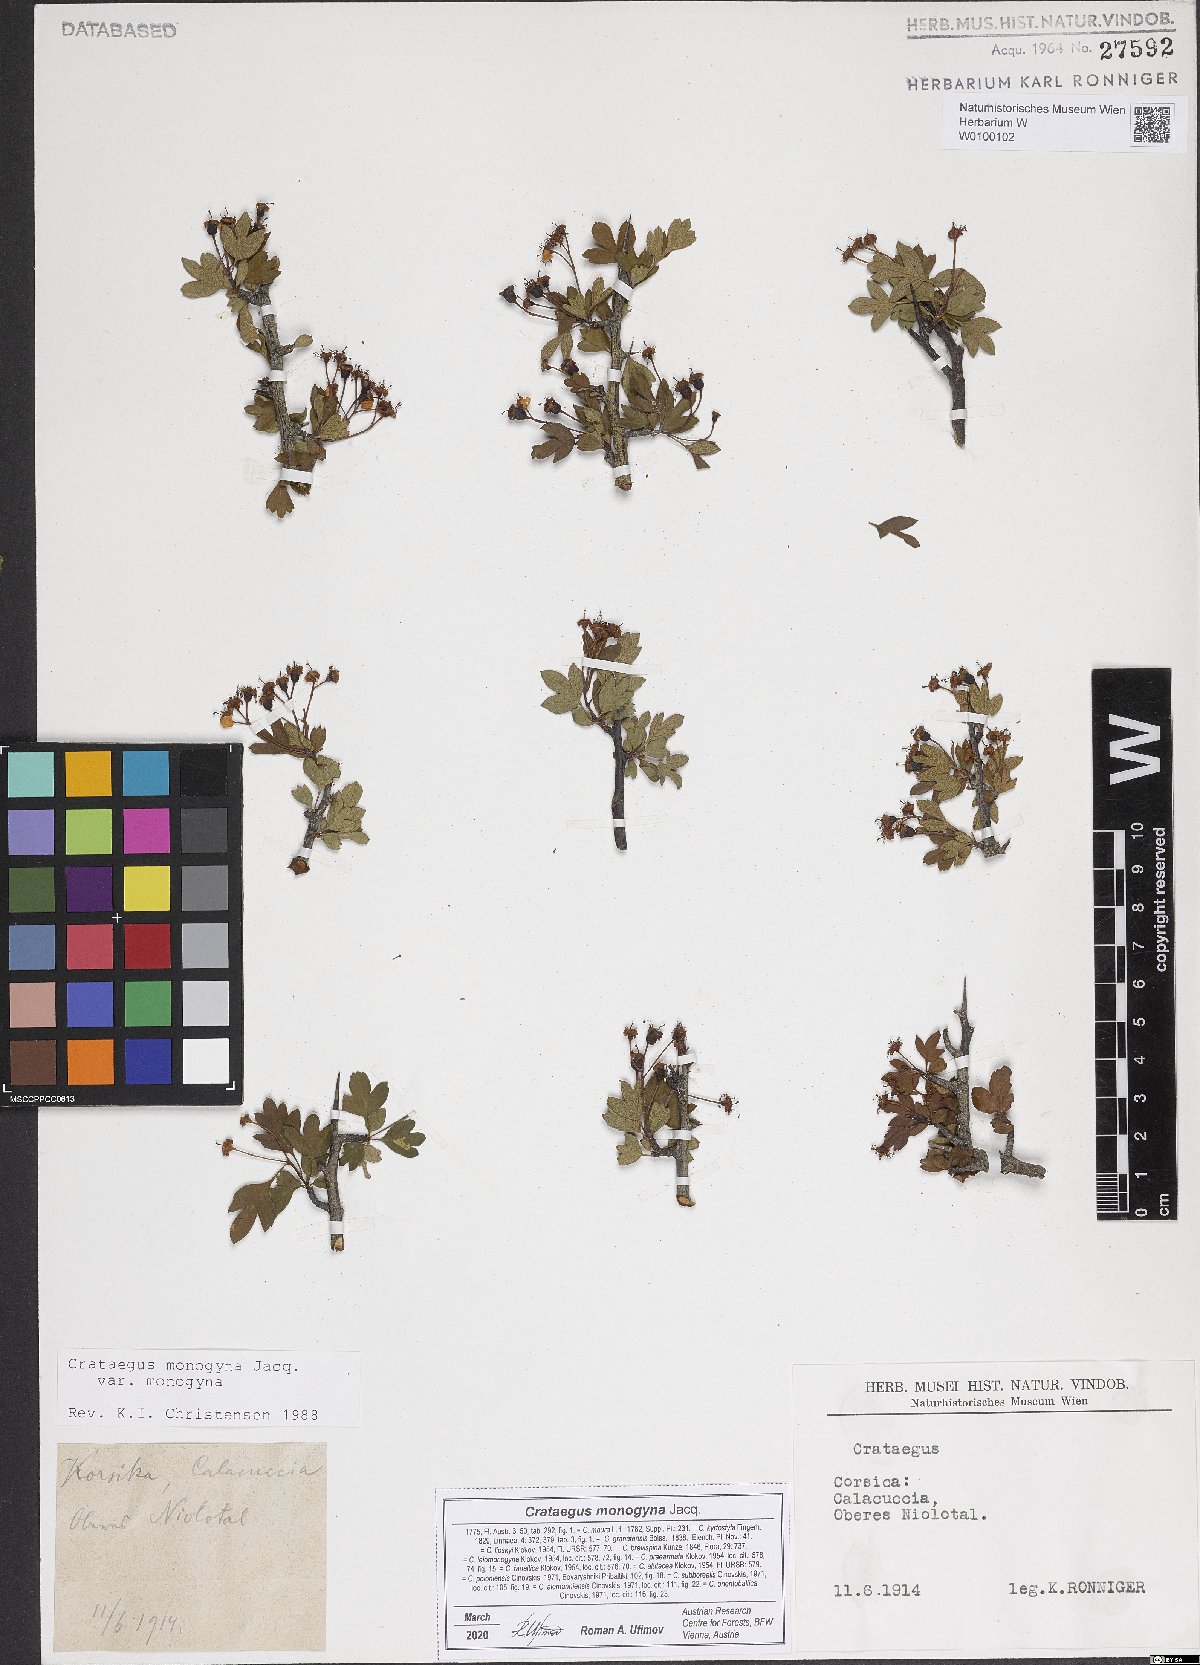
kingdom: Plantae
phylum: Tracheophyta
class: Magnoliopsida
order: Rosales
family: Rosaceae
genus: Crataegus
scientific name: Crataegus monogyna
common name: Hawthorn
